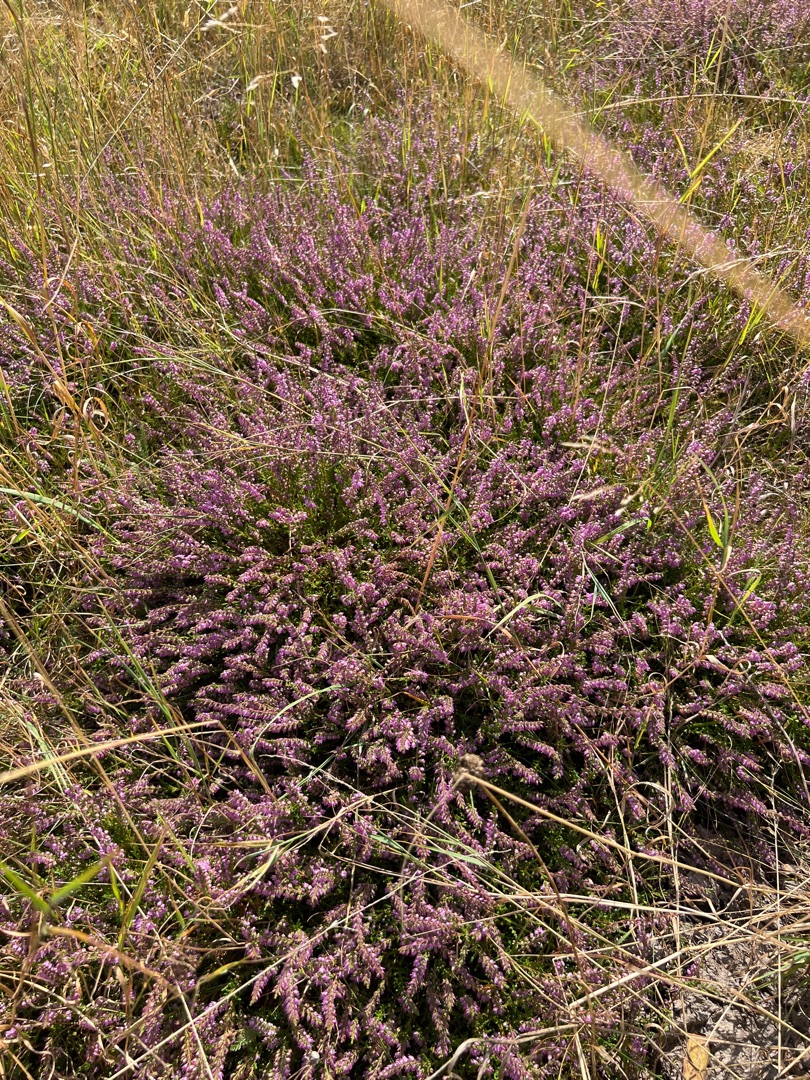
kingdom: Plantae
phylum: Tracheophyta
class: Magnoliopsida
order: Ericales
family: Ericaceae
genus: Calluna
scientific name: Calluna vulgaris
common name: Hedelyng
